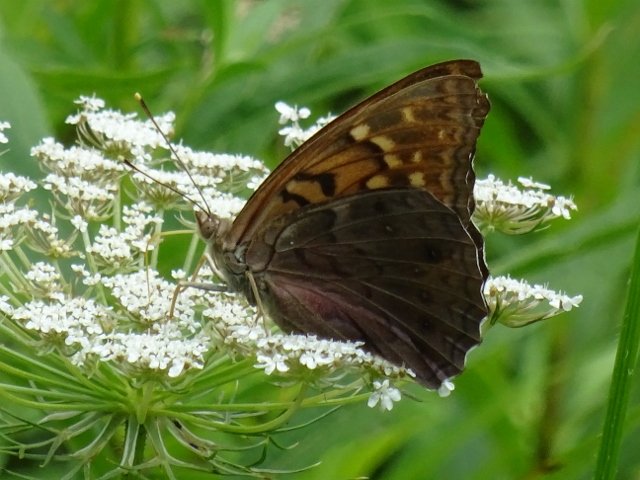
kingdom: Animalia
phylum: Arthropoda
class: Insecta
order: Lepidoptera
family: Nymphalidae
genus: Asterocampa
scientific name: Asterocampa clyton
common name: Tawny Emperor
